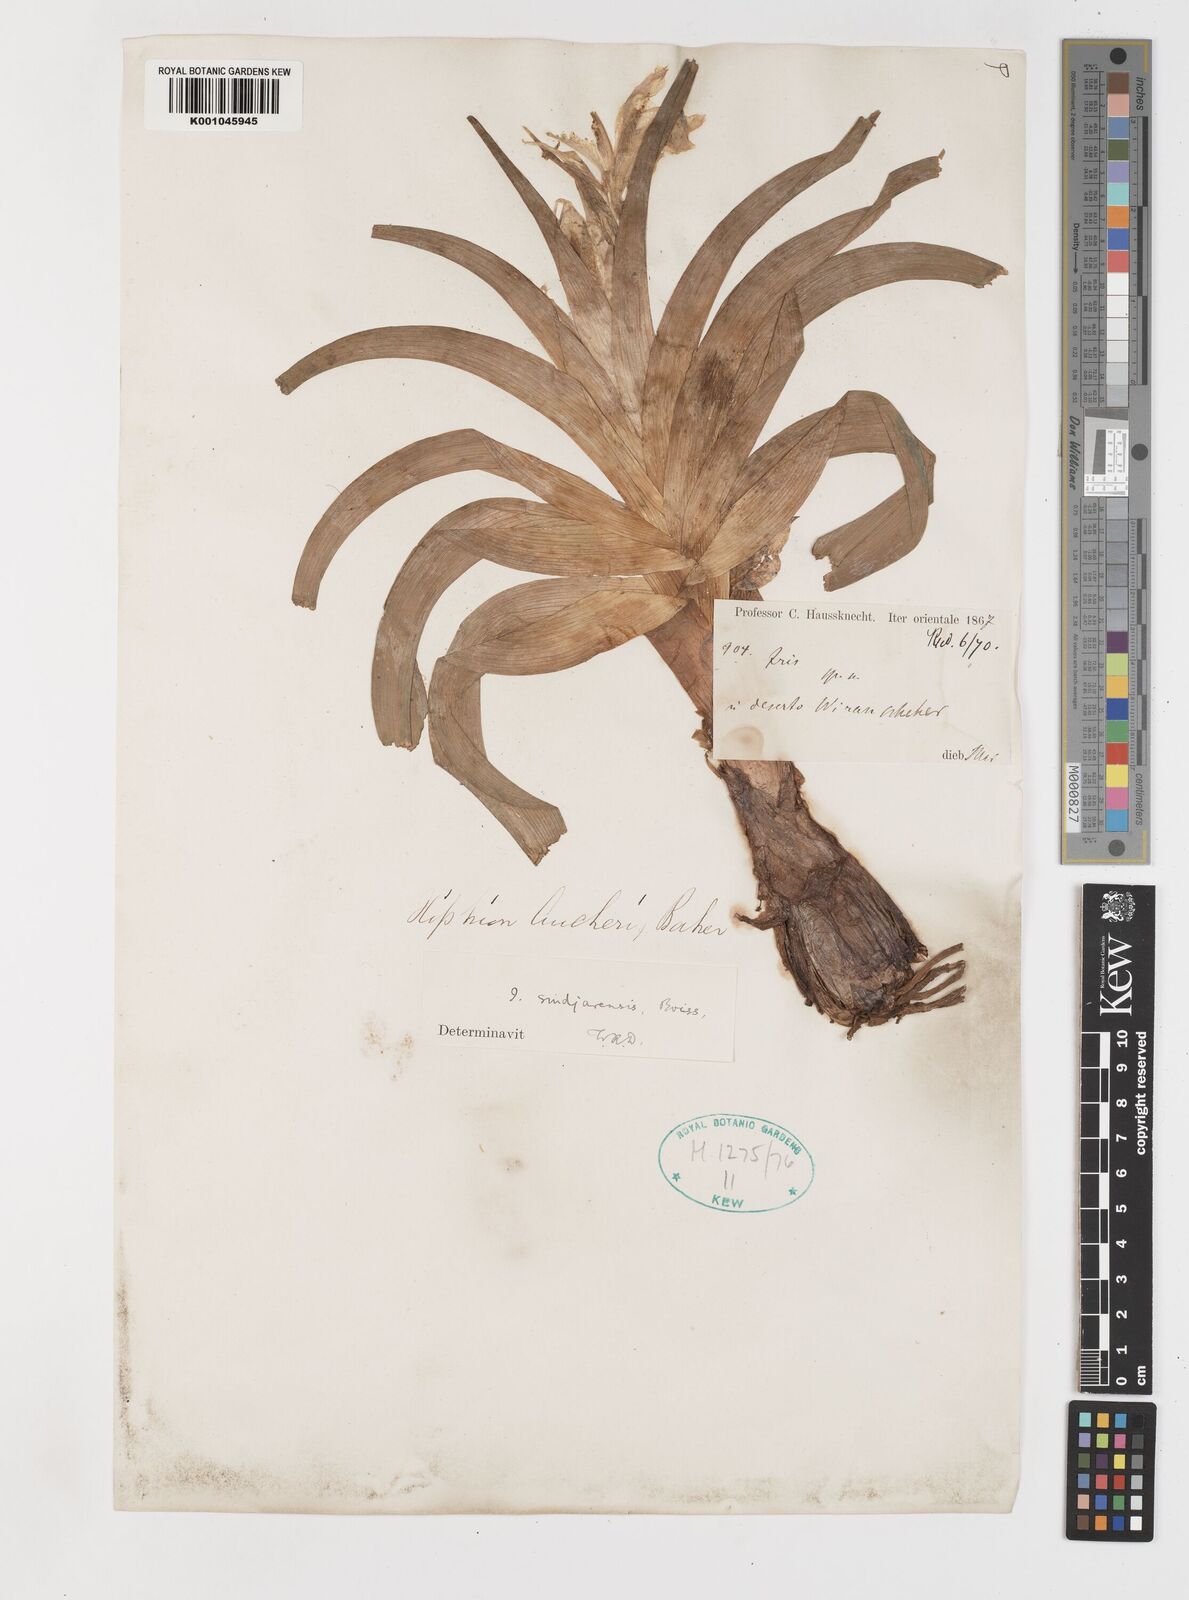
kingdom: Plantae
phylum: Tracheophyta
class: Liliopsida
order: Asparagales
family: Iridaceae
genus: Iris
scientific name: Iris aucheri
